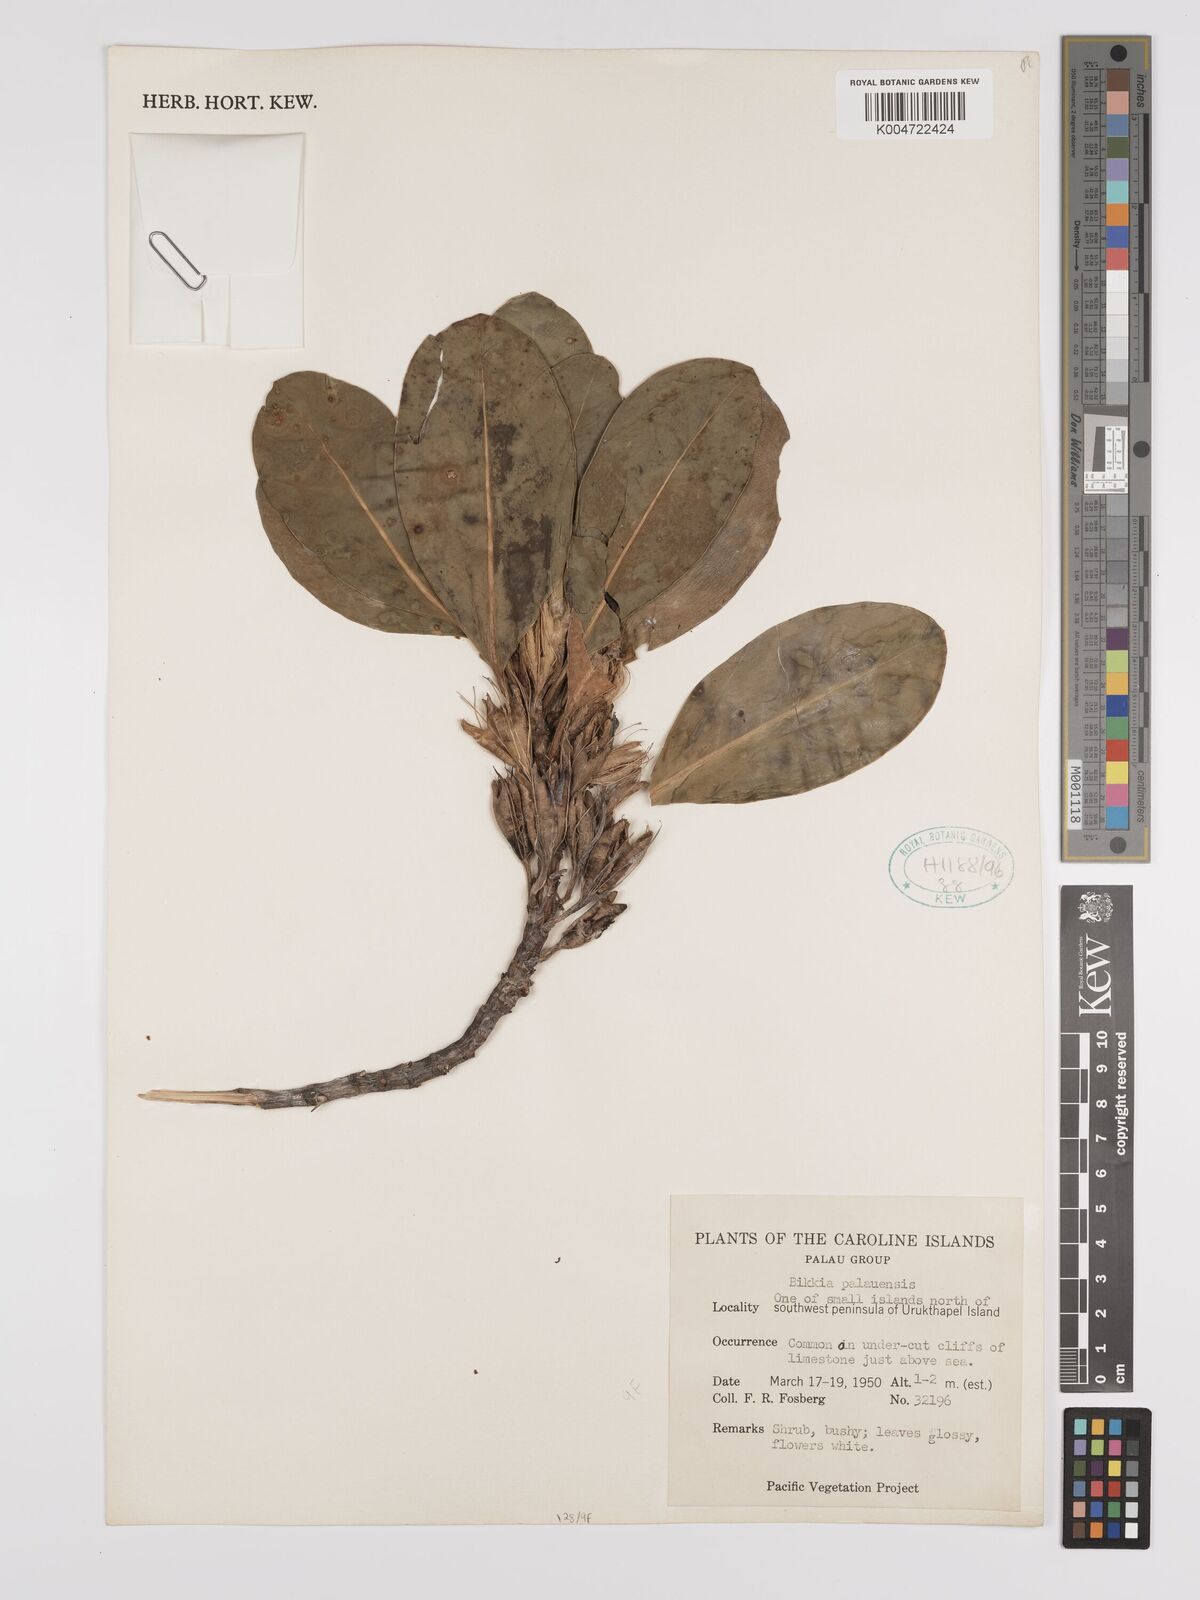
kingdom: Plantae
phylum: Tracheophyta
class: Magnoliopsida
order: Gentianales
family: Rubiaceae
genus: Bikkia
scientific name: Bikkia palauensis
